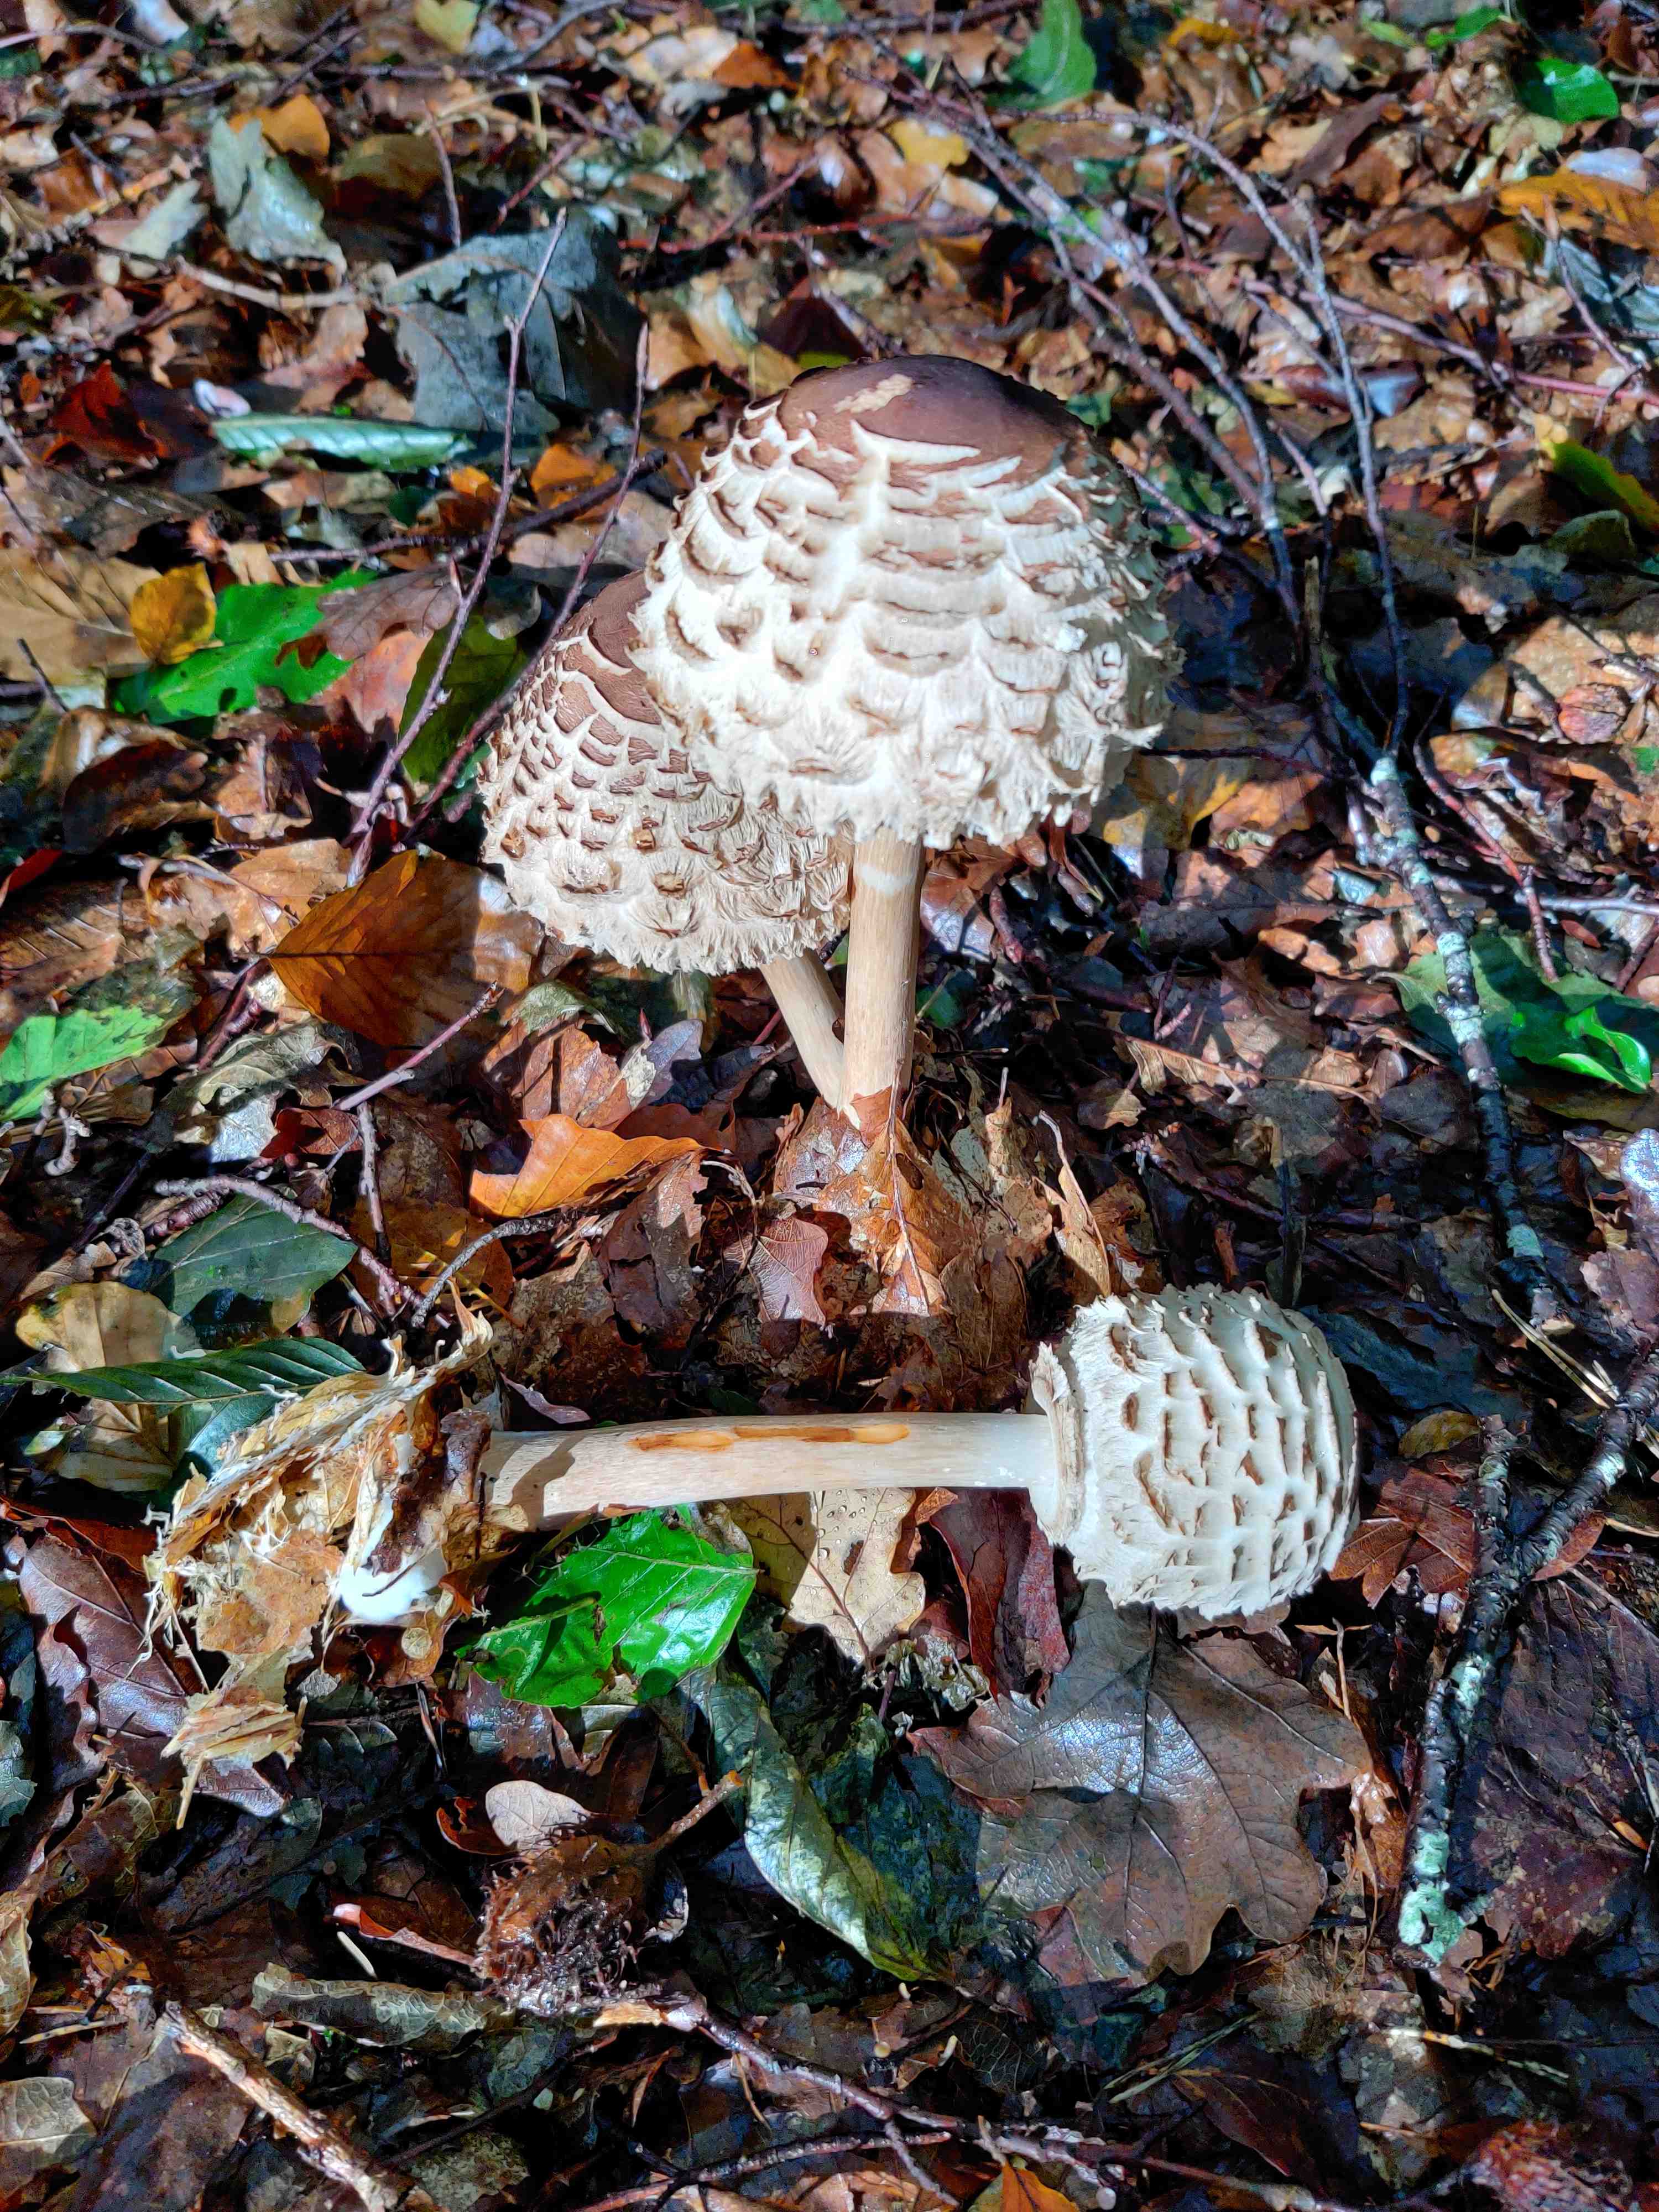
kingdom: Fungi
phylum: Basidiomycota
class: Agaricomycetes
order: Agaricales
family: Agaricaceae
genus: Chlorophyllum
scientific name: Chlorophyllum rhacodes
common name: ægte rabarberhat
